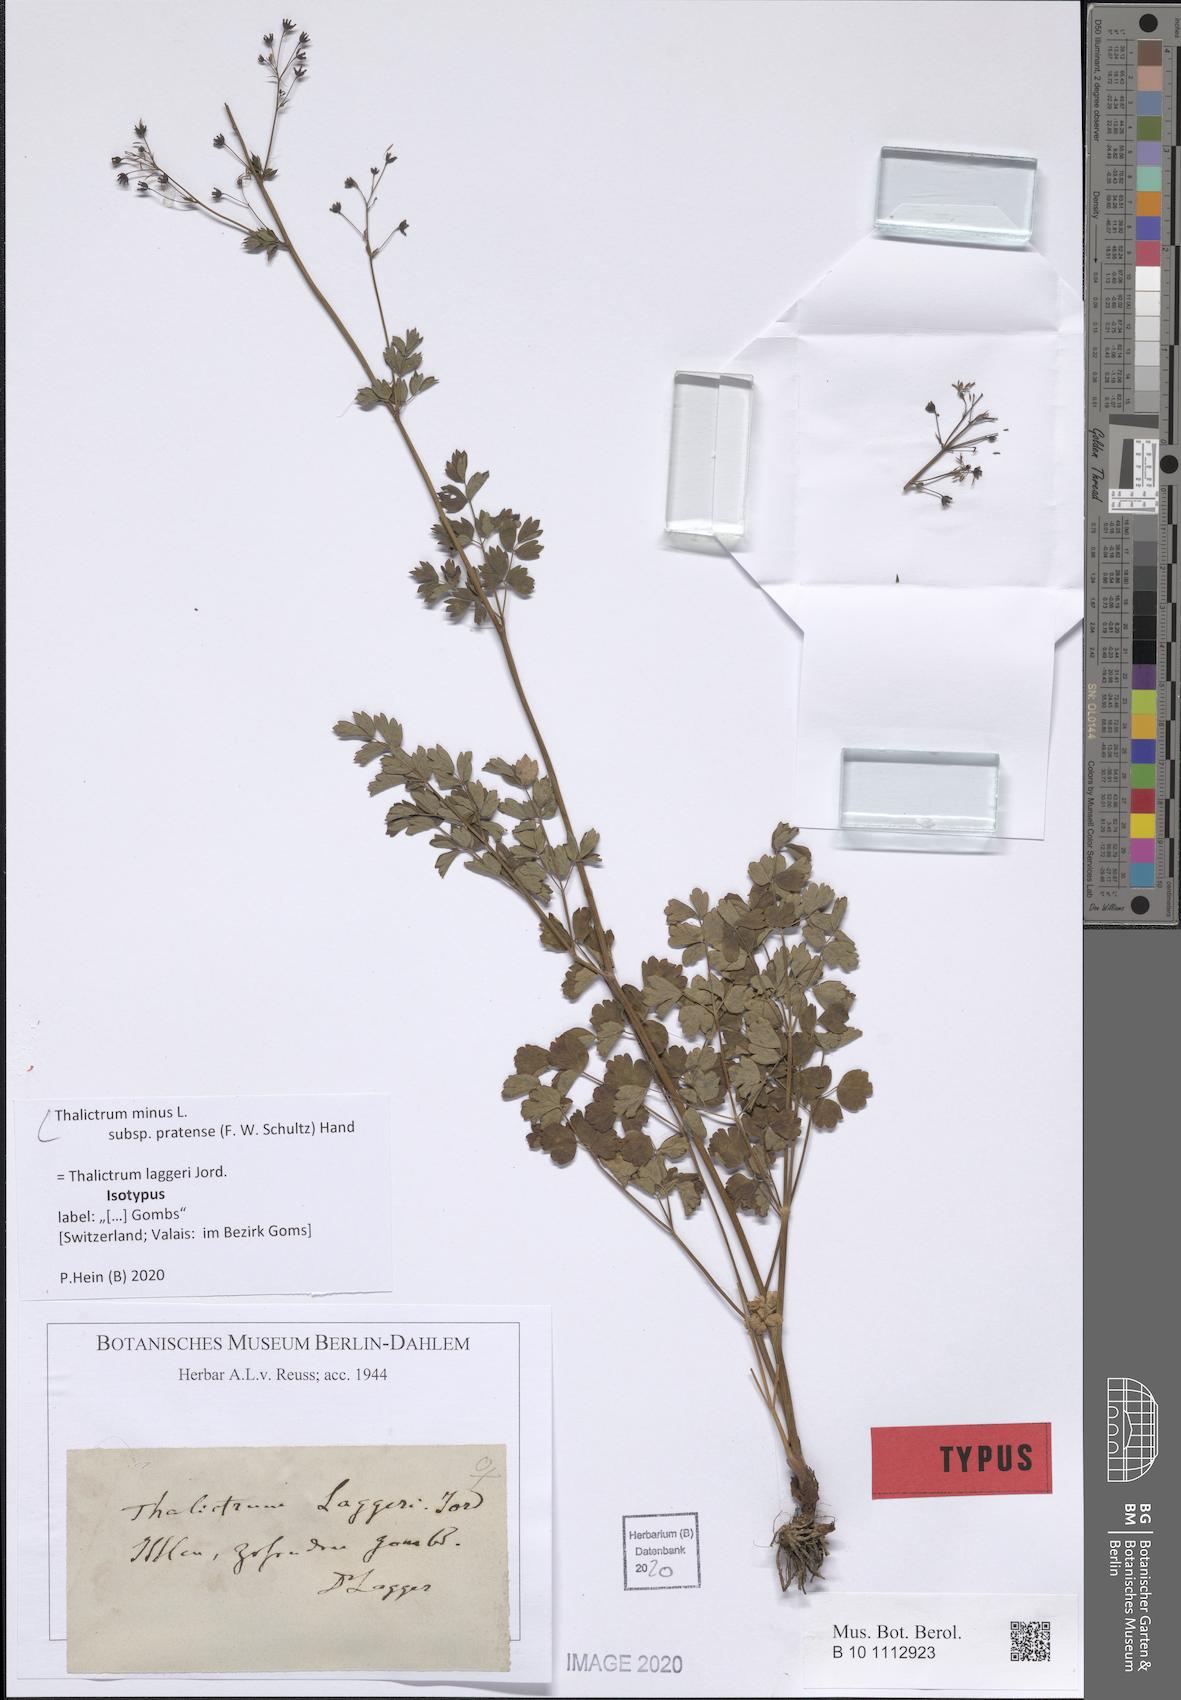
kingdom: Plantae
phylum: Tracheophyta
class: Magnoliopsida
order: Ranunculales
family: Ranunculaceae
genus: Thalictrum
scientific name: Thalictrum minus
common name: Lesser meadow-rue
